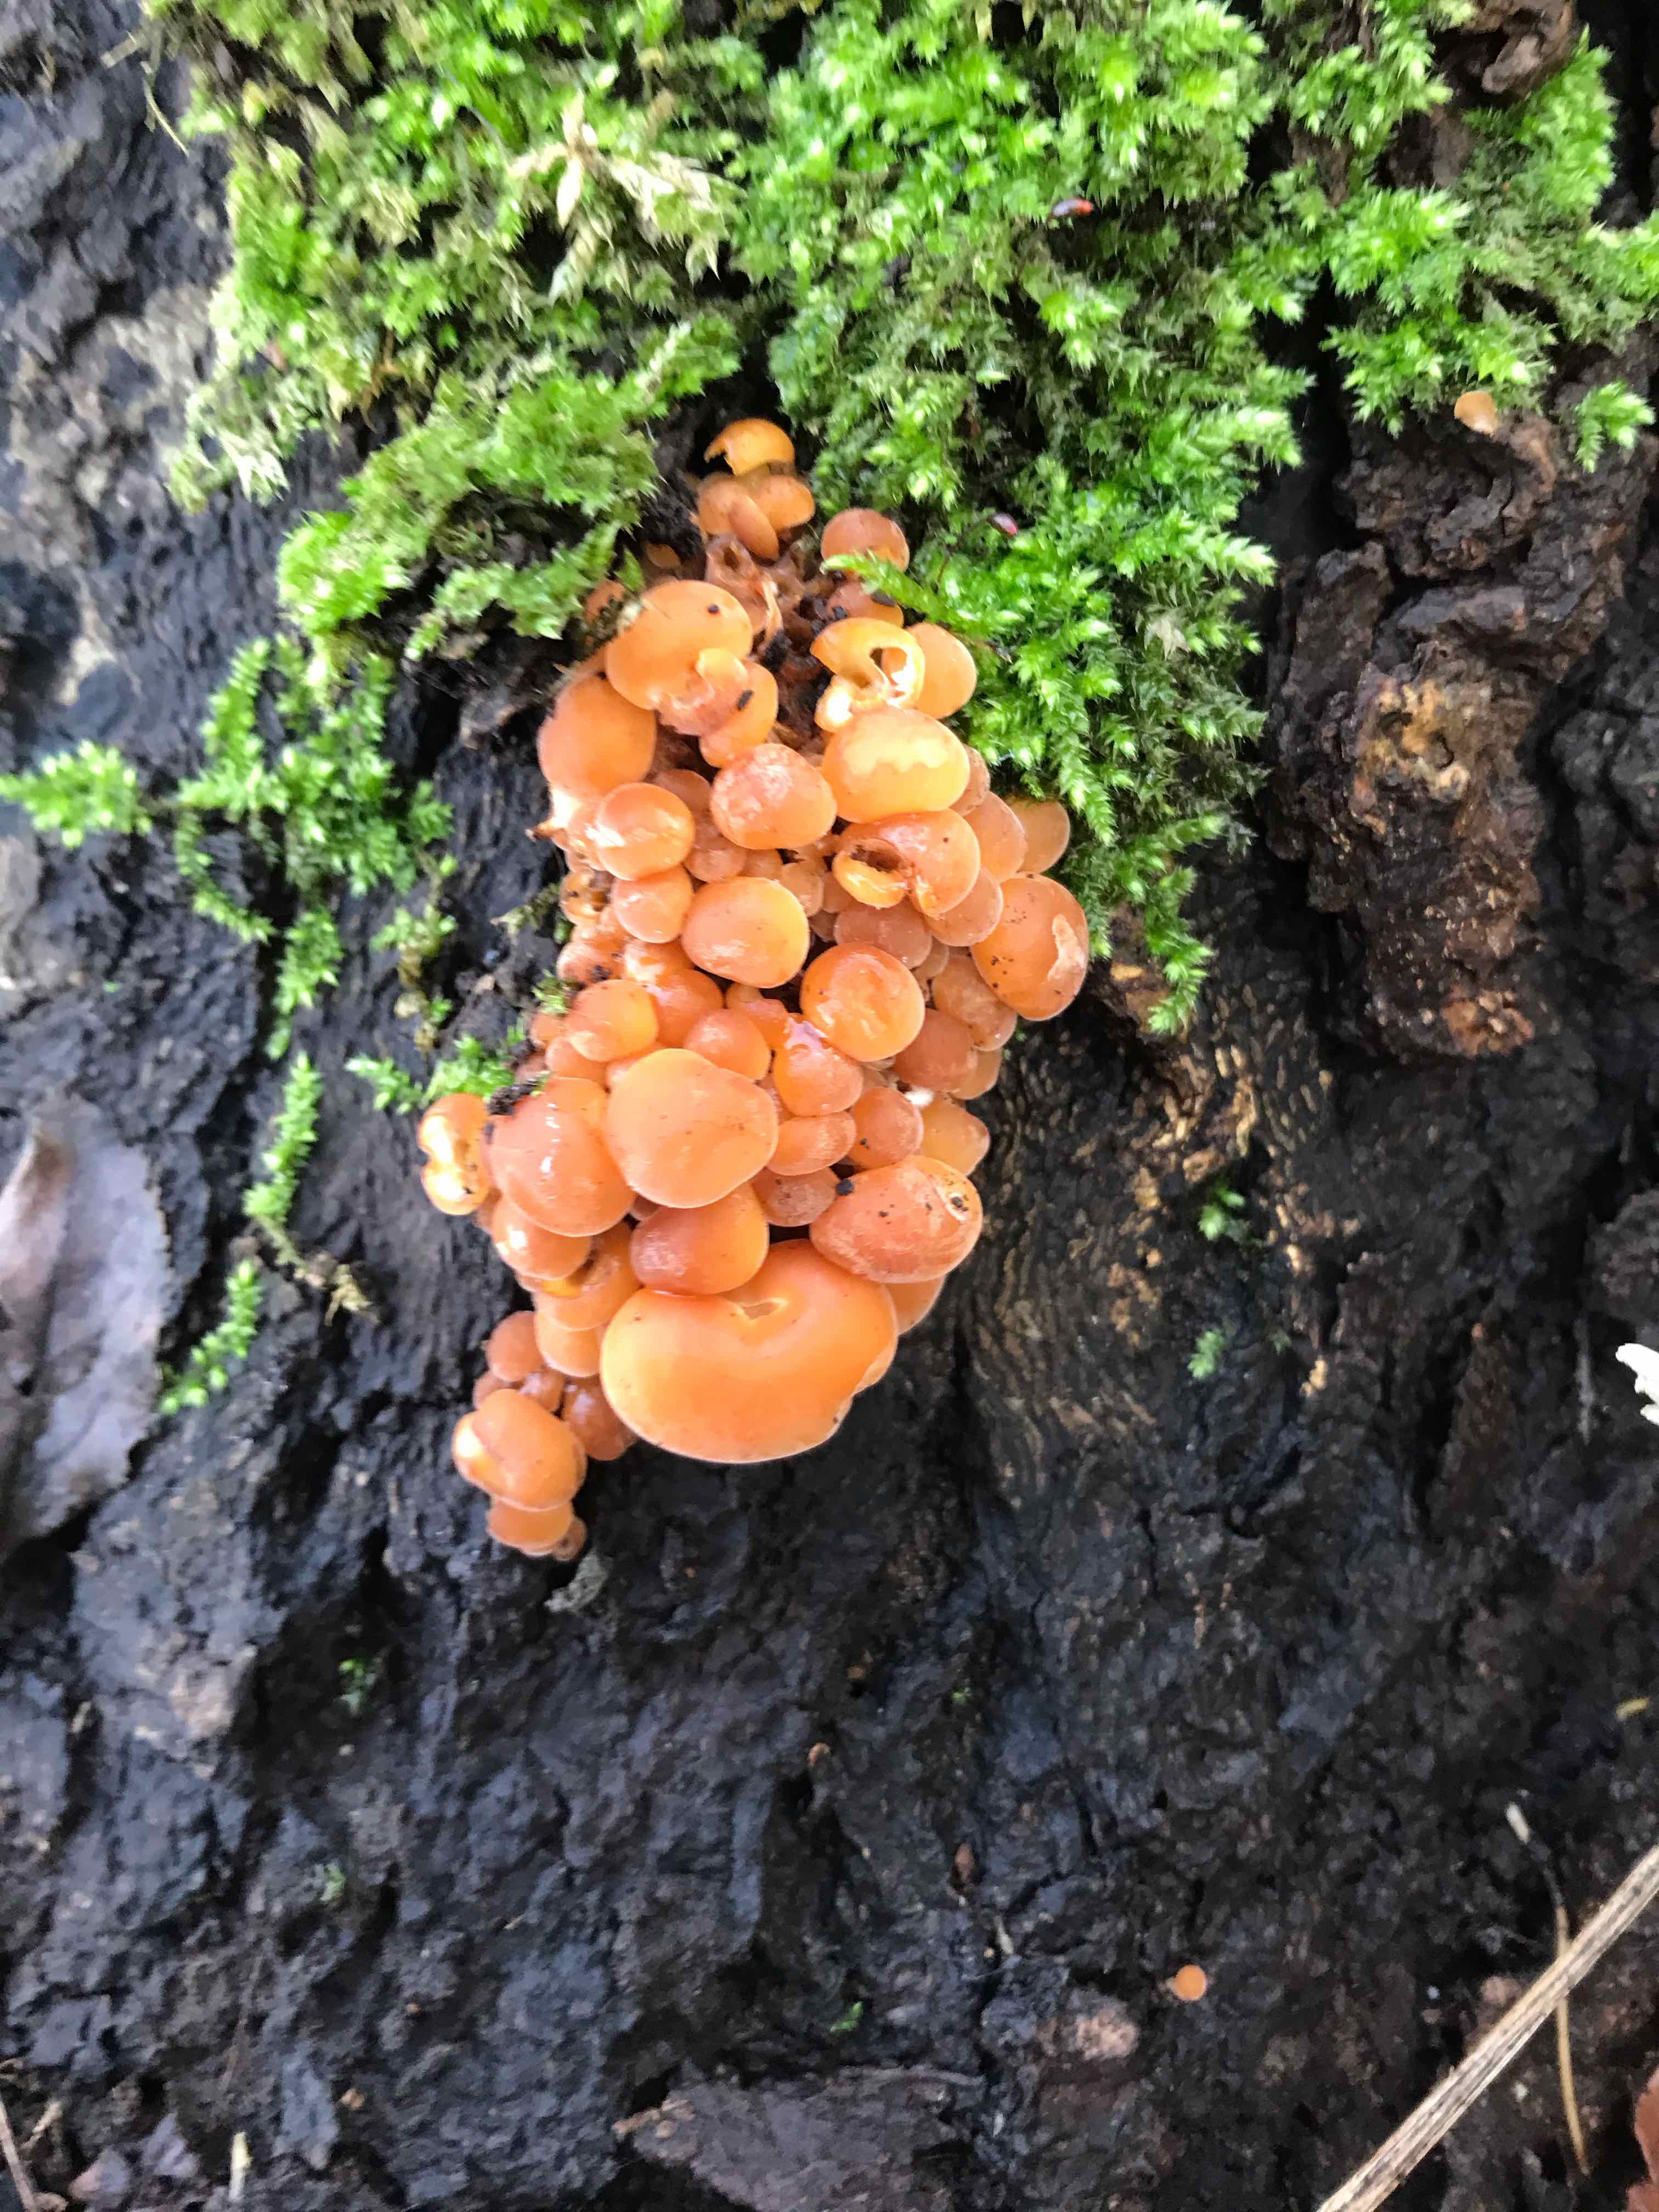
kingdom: Fungi
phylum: Basidiomycota
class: Agaricomycetes
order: Agaricales
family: Physalacriaceae
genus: Flammulina
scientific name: Flammulina velutipes
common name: gul fløjlsfod
